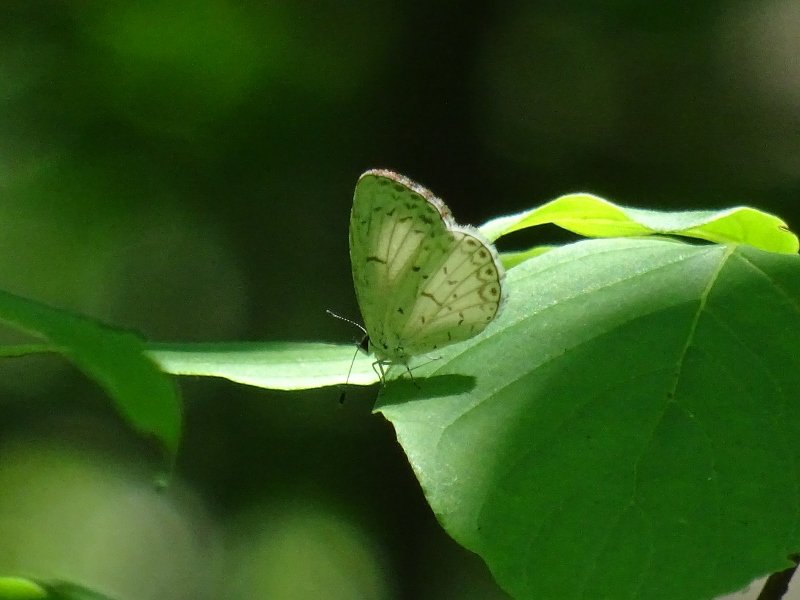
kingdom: Animalia
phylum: Arthropoda
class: Insecta
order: Lepidoptera
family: Lycaenidae
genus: Celastrina
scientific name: Celastrina
